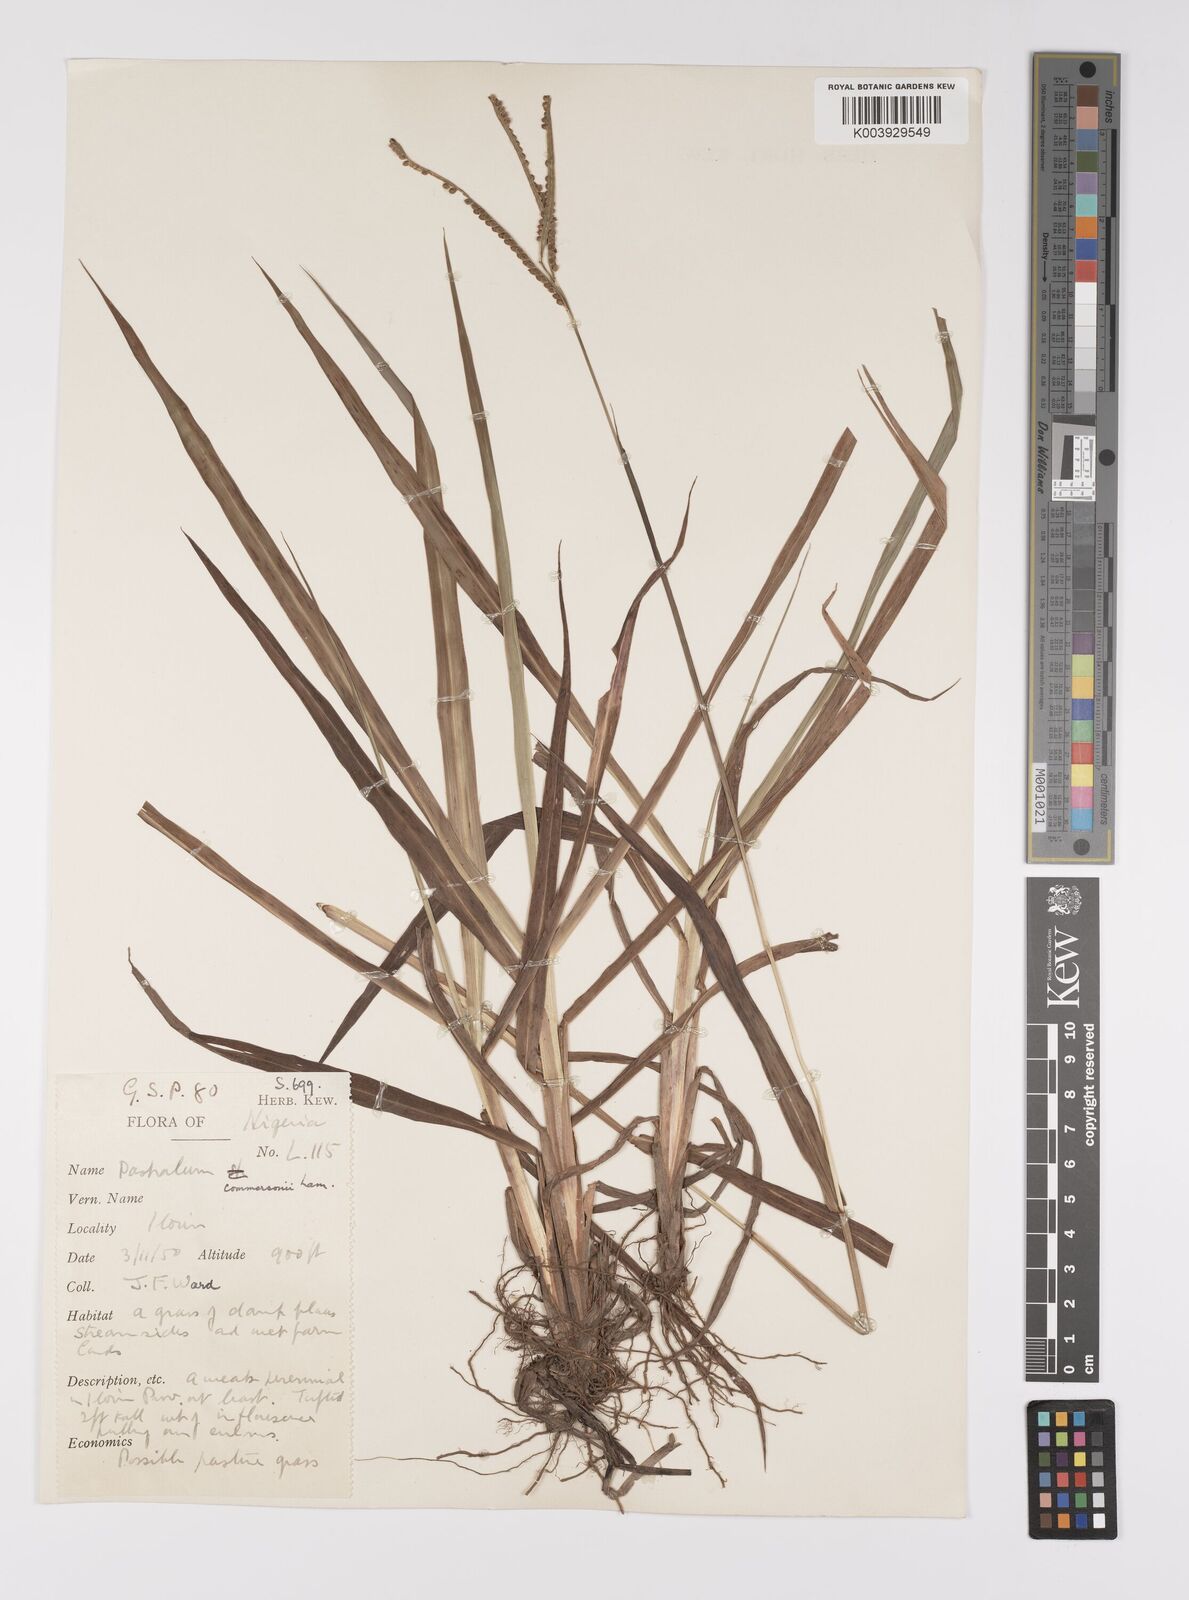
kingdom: Plantae
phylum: Tracheophyta
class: Liliopsida
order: Poales
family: Poaceae
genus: Paspalum
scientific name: Paspalum scrobiculatum
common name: Kodo millet
